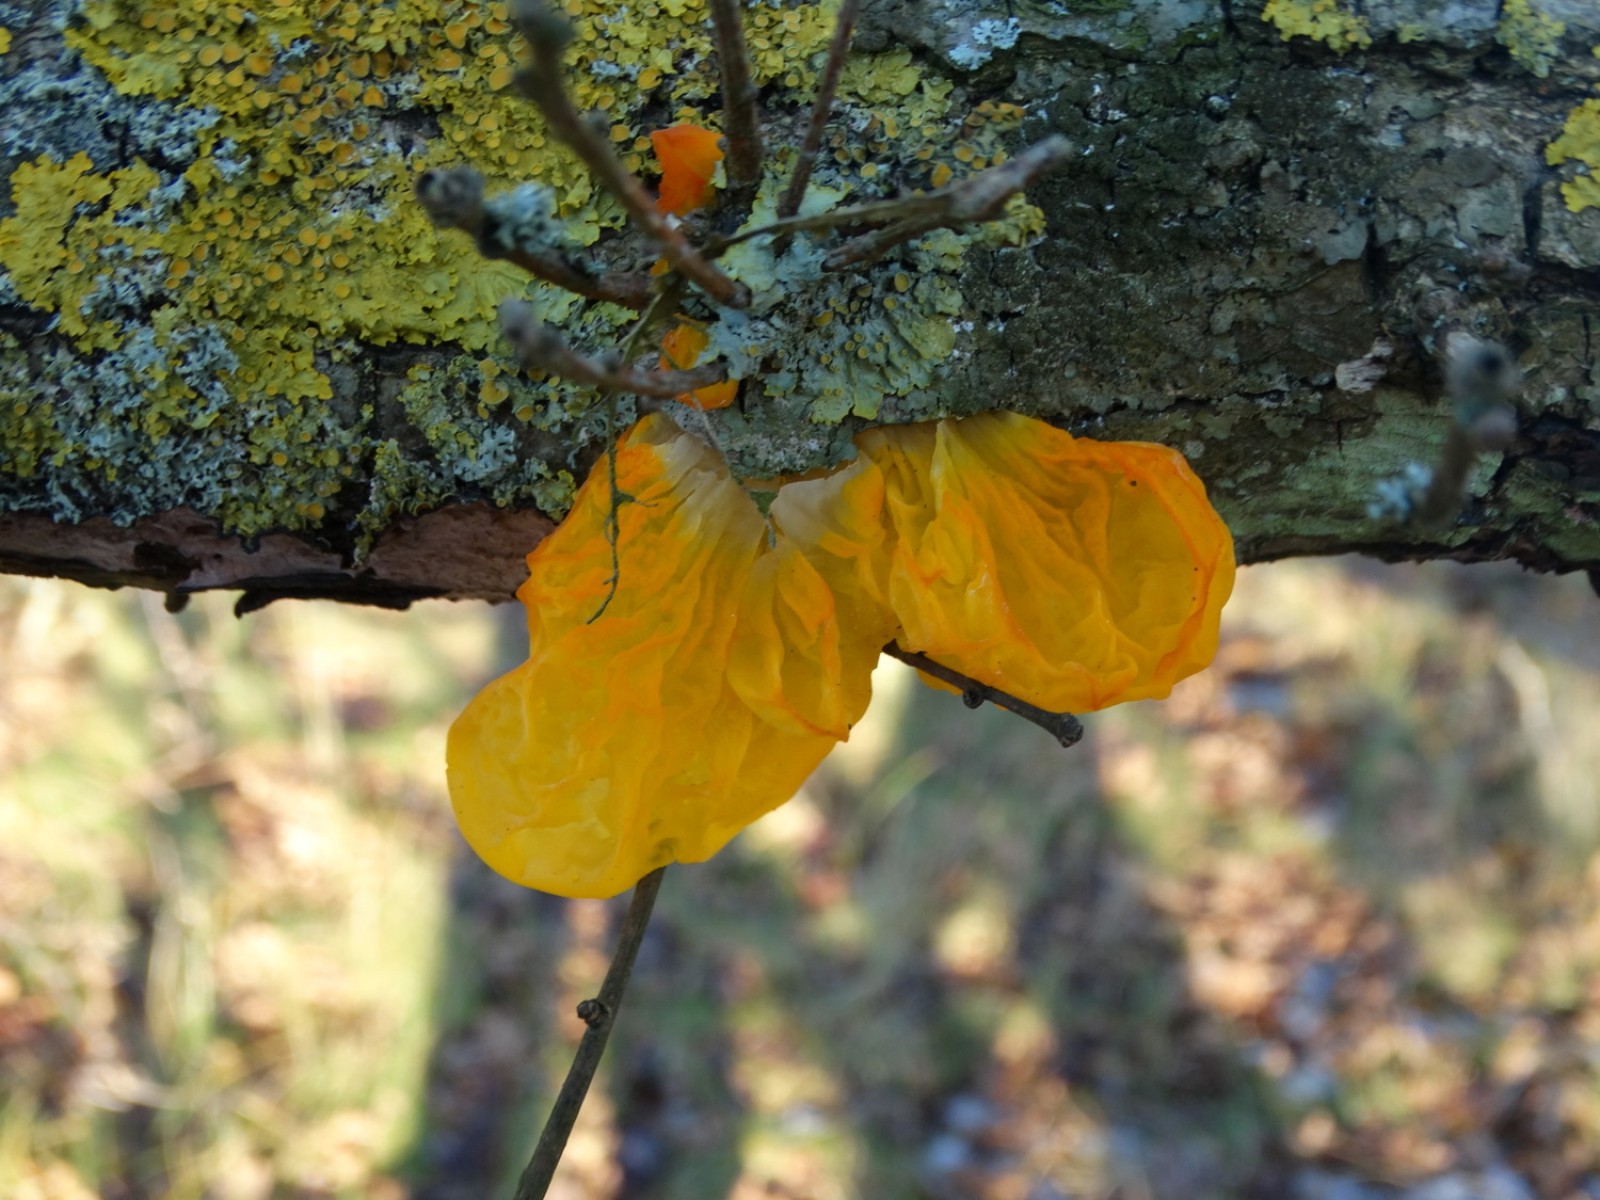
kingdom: Fungi
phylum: Basidiomycota
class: Tremellomycetes
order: Tremellales
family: Tremellaceae
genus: Tremella
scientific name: Tremella mesenterica
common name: gul bævresvamp
